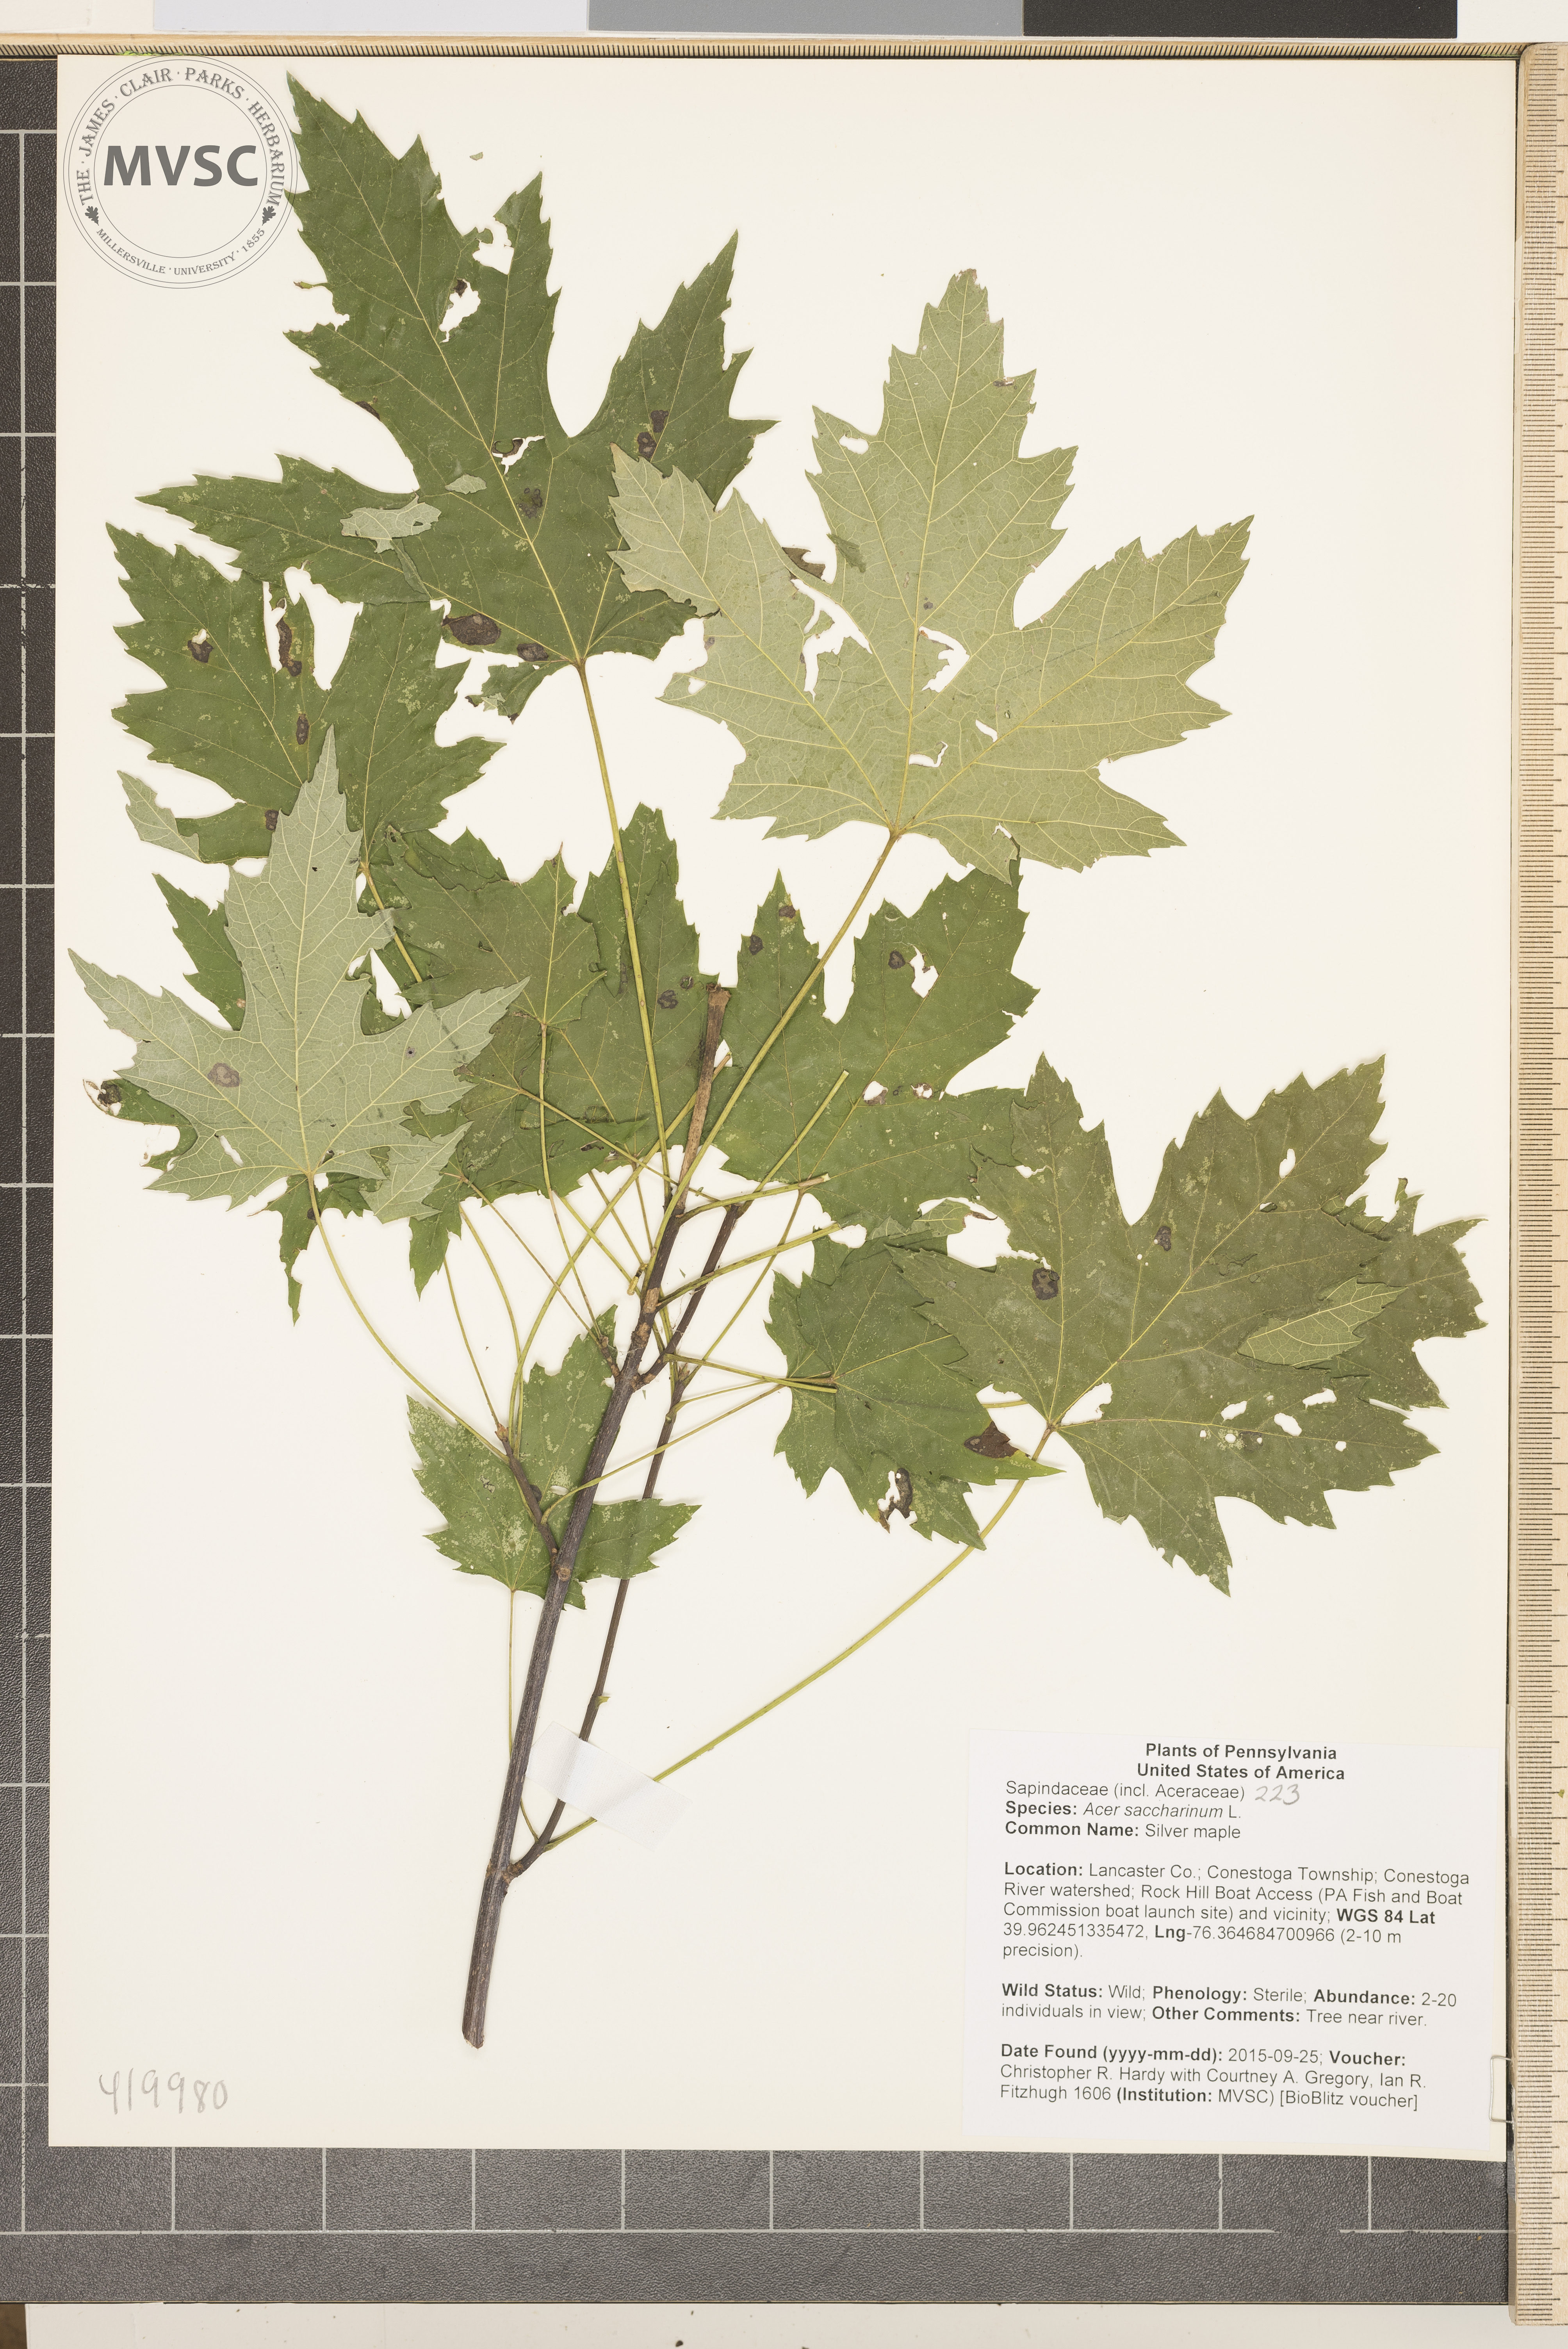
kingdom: Plantae
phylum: Tracheophyta
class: Magnoliopsida
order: Sapindales
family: Sapindaceae
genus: Acer
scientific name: Acer saccharinum
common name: Silver maple
